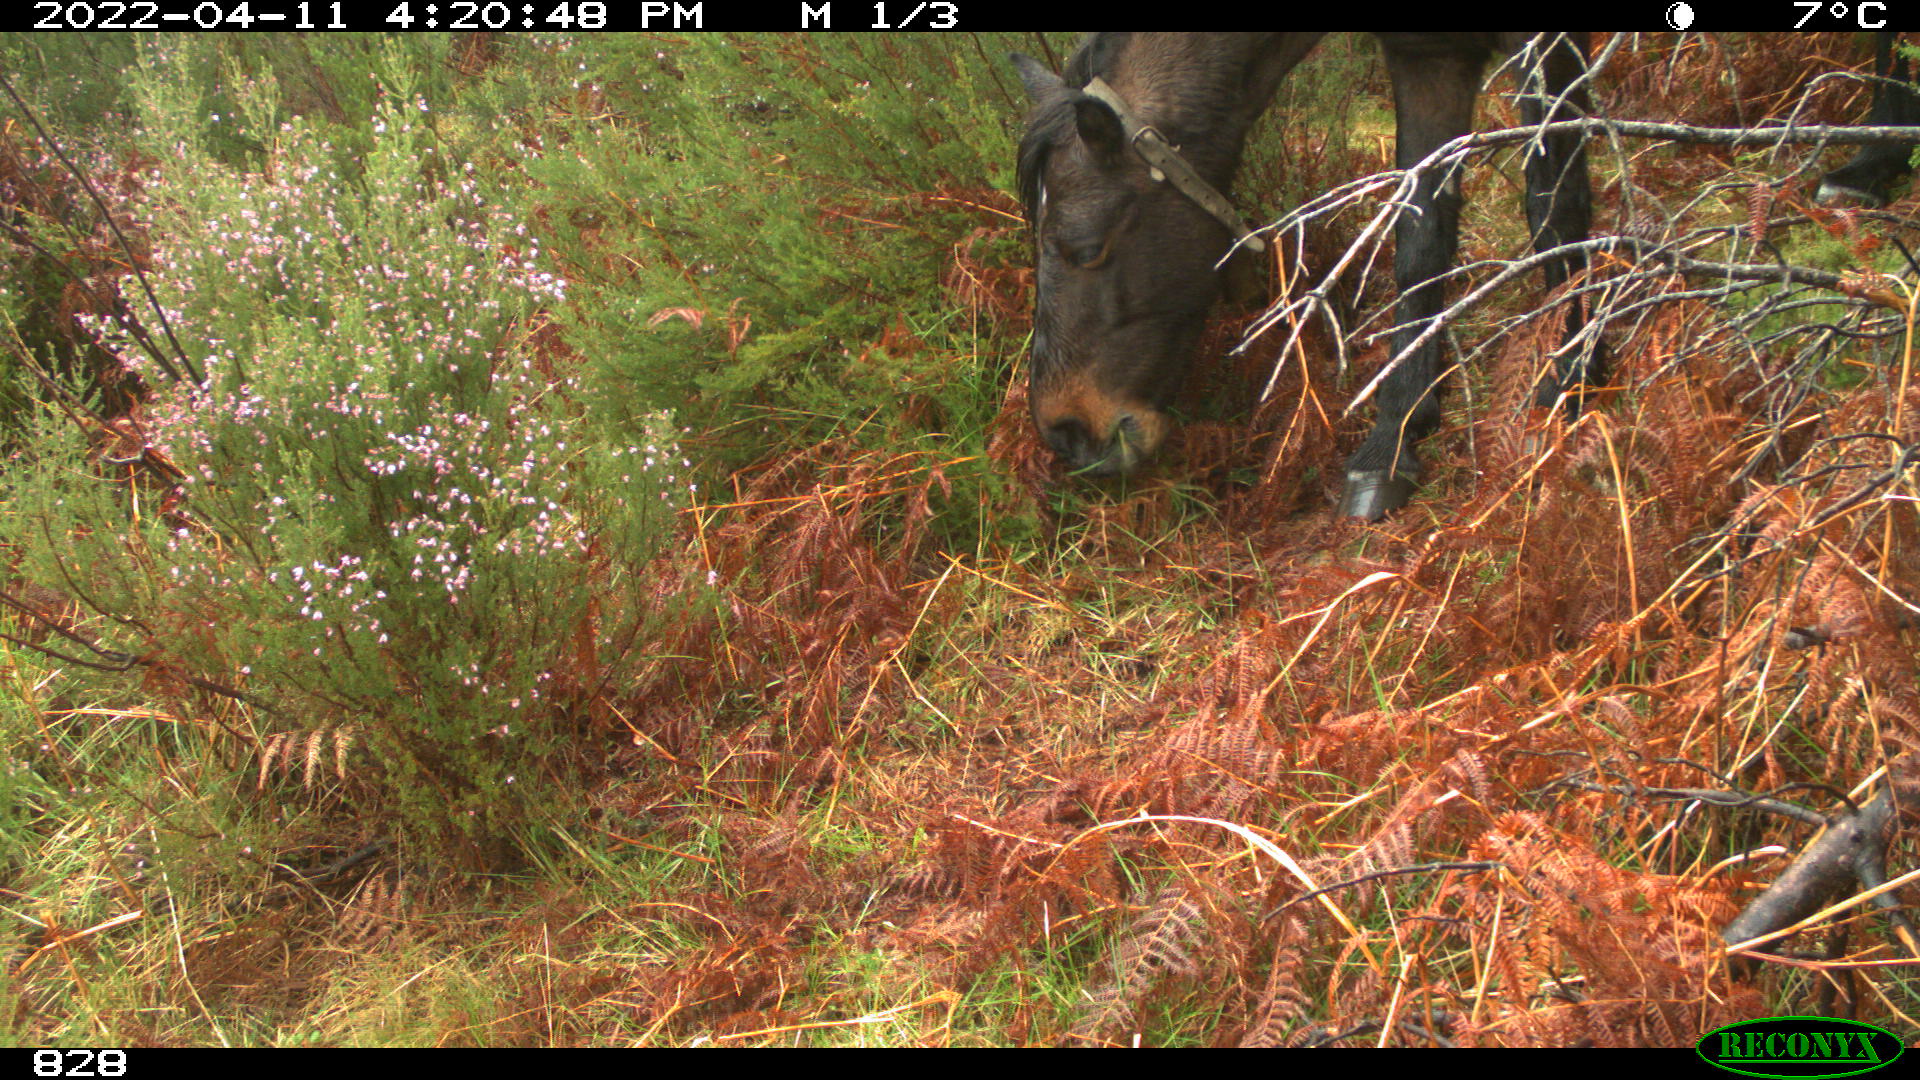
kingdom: Animalia
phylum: Chordata
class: Mammalia
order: Perissodactyla
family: Equidae
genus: Equus
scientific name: Equus caballus
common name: Horse
